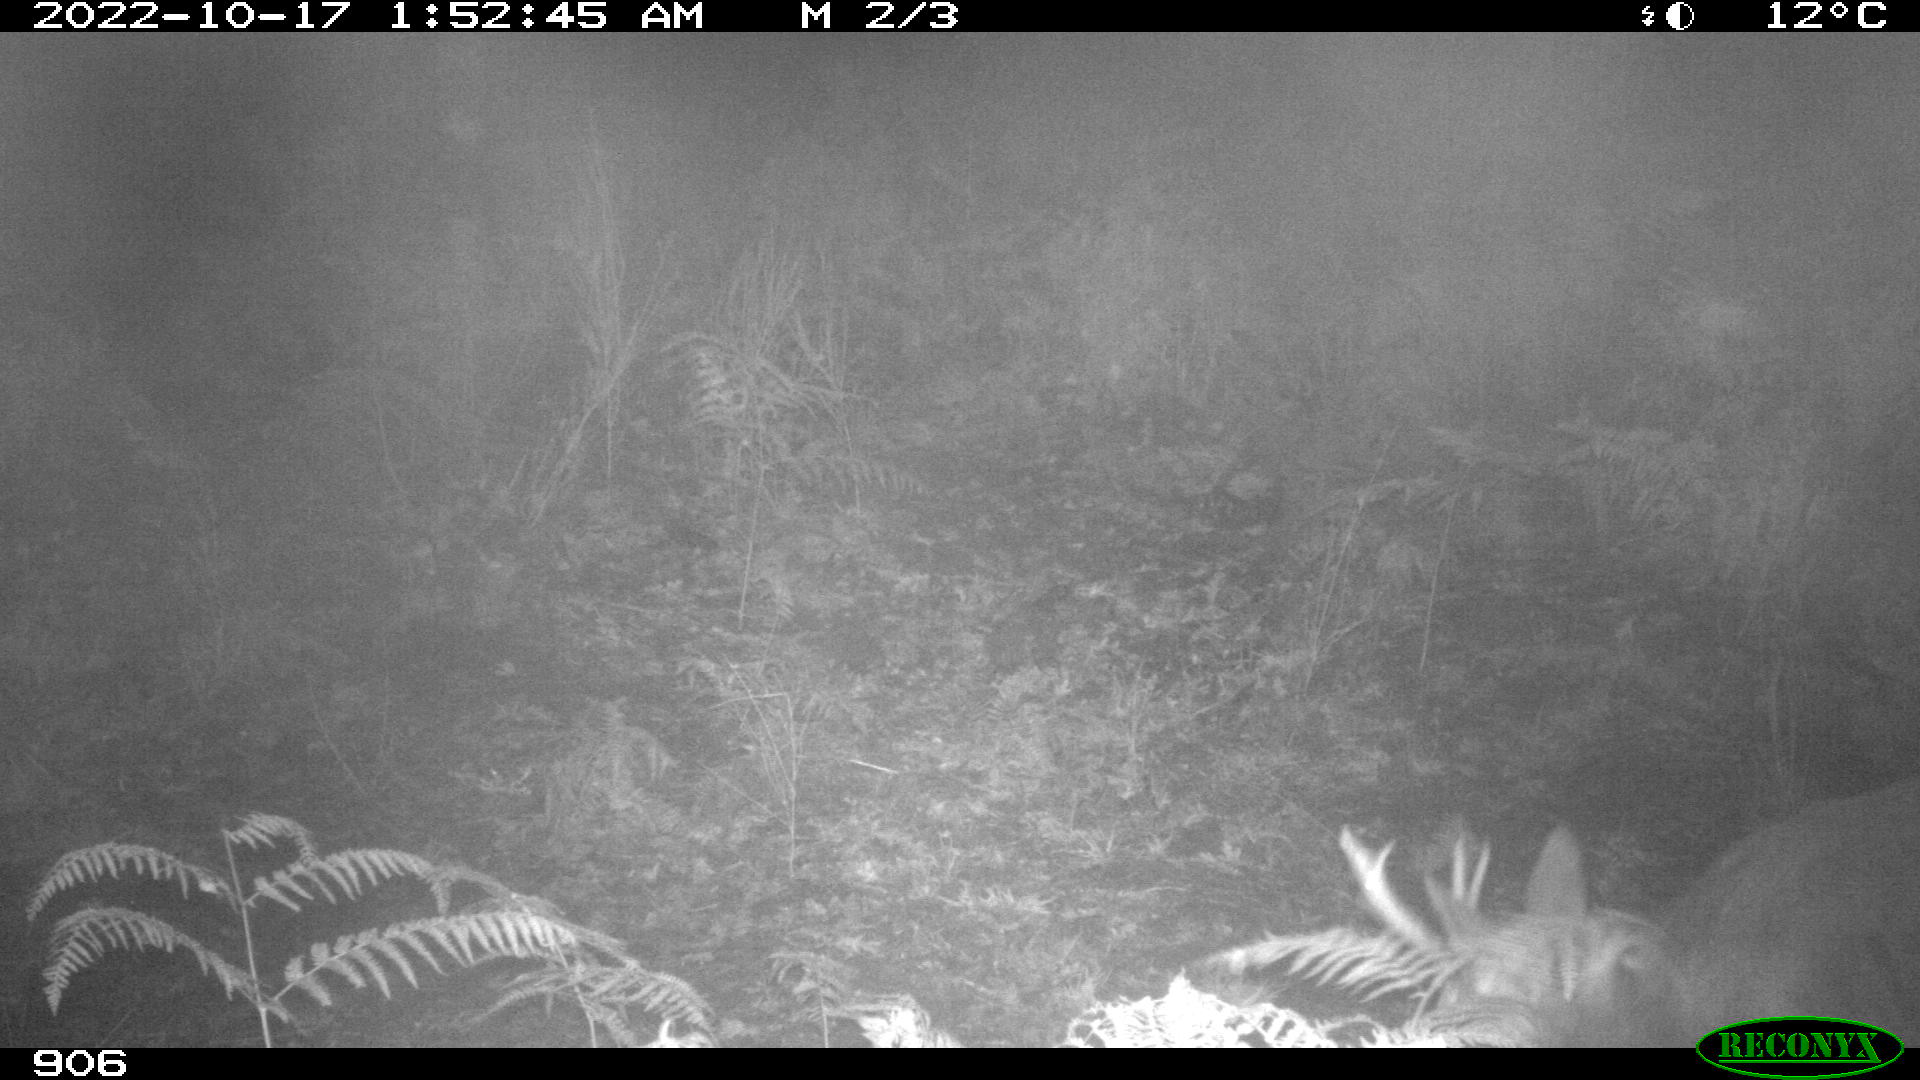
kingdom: Animalia
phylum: Chordata
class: Mammalia
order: Artiodactyla
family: Cervidae
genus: Capreolus
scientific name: Capreolus capreolus
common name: Western roe deer
